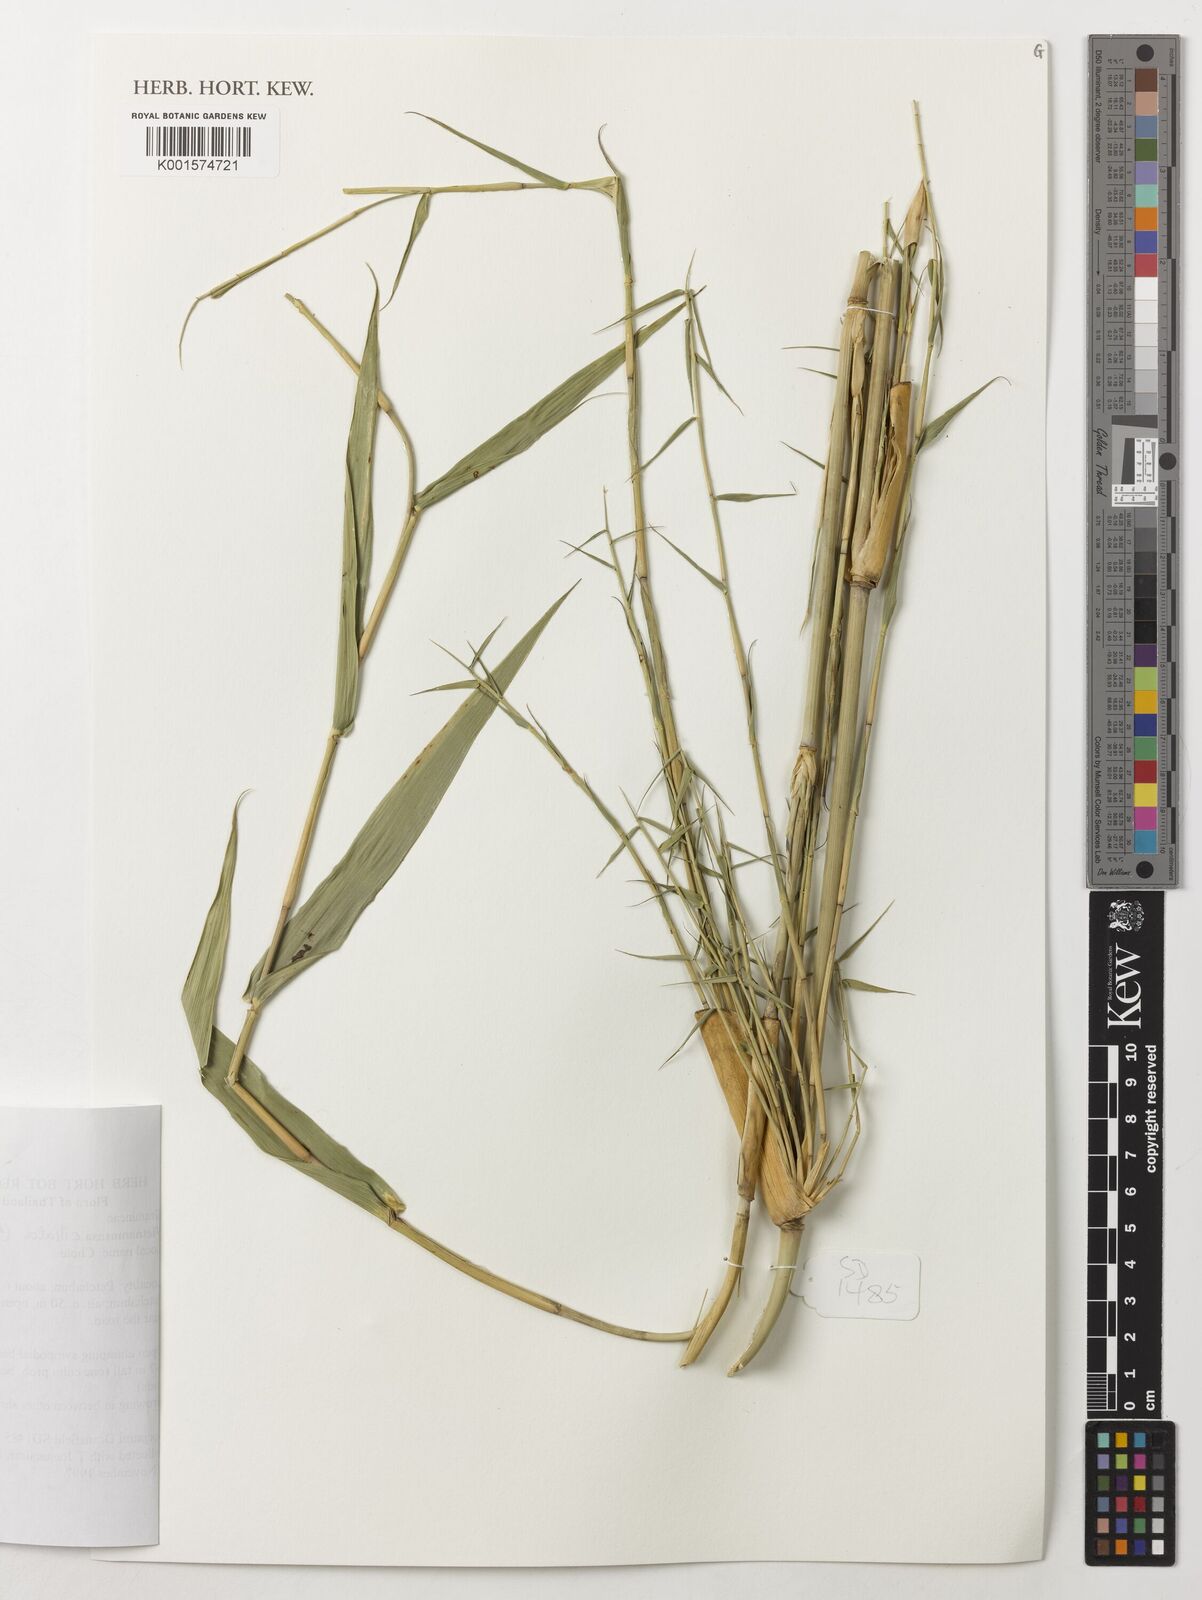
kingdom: Plantae
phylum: Tracheophyta
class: Liliopsida
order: Poales
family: Poaceae
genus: Vietnamosasa
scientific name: Vietnamosasa ciliata
